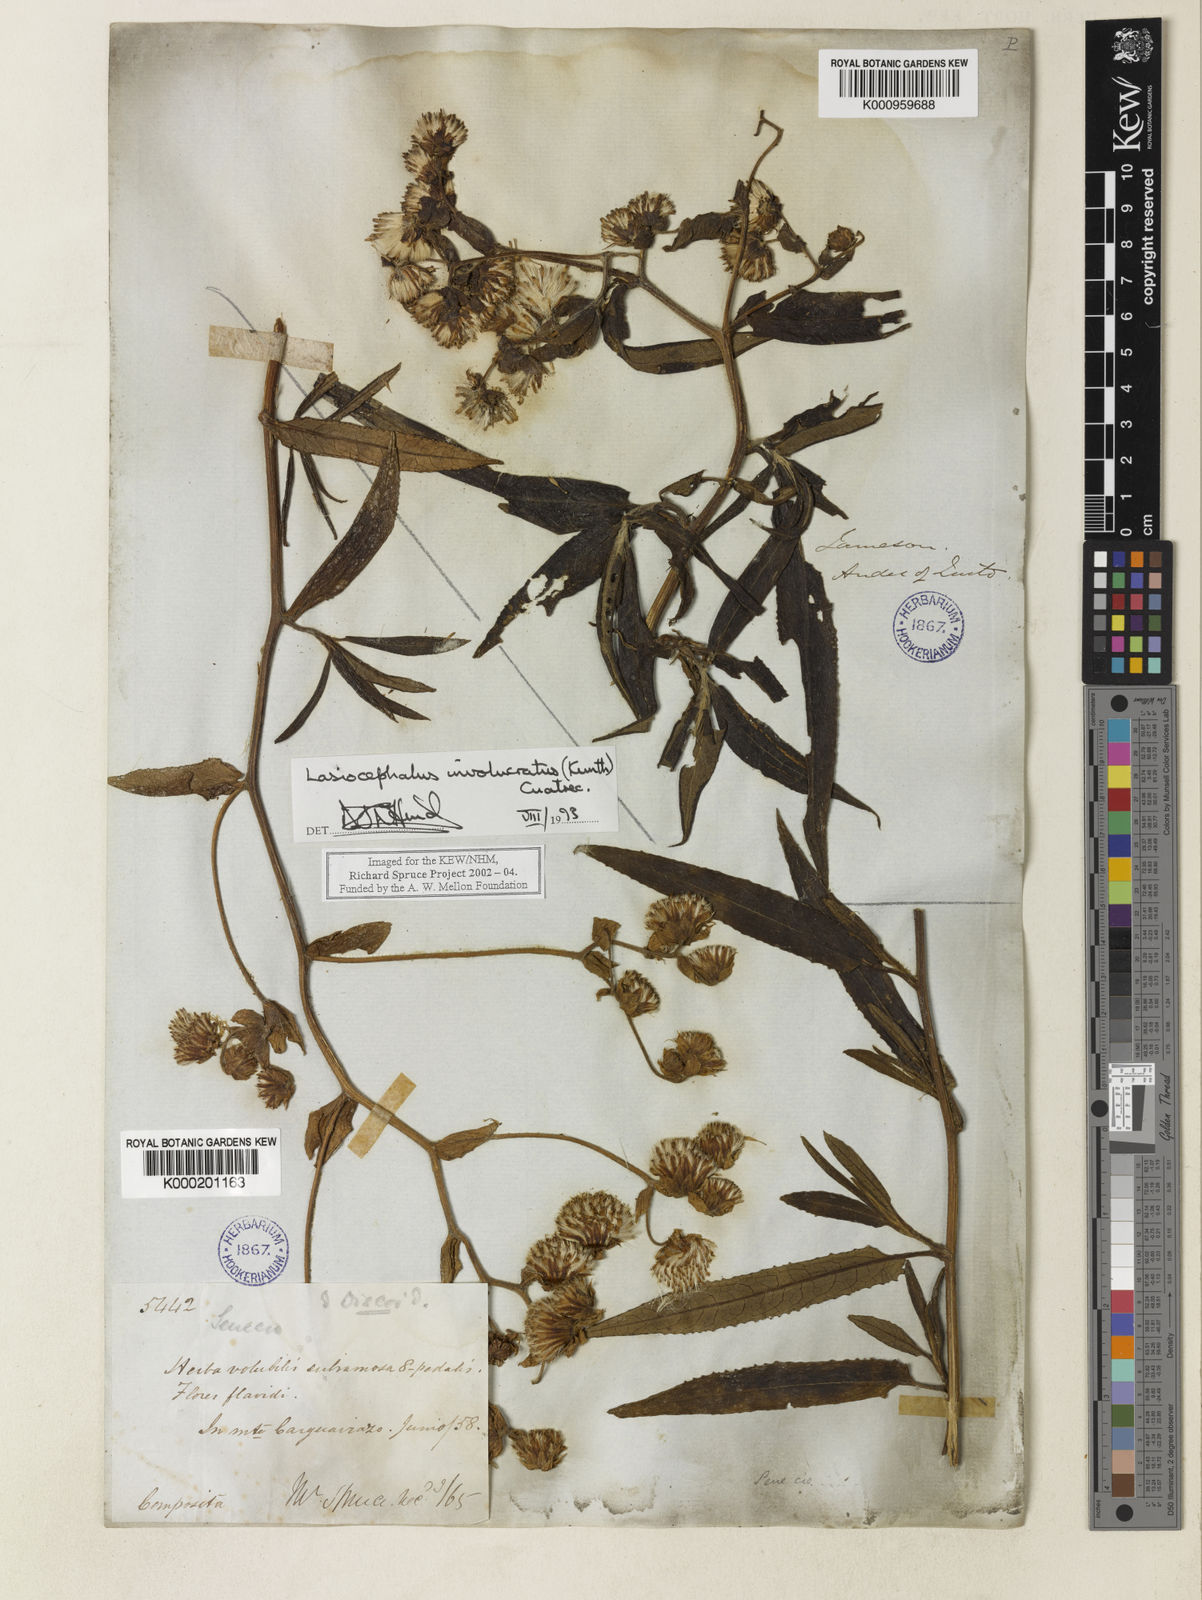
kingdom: Plantae
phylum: Tracheophyta
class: Magnoliopsida
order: Asterales
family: Asteraceae
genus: Aetheolaena
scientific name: Aetheolaena involucrata
